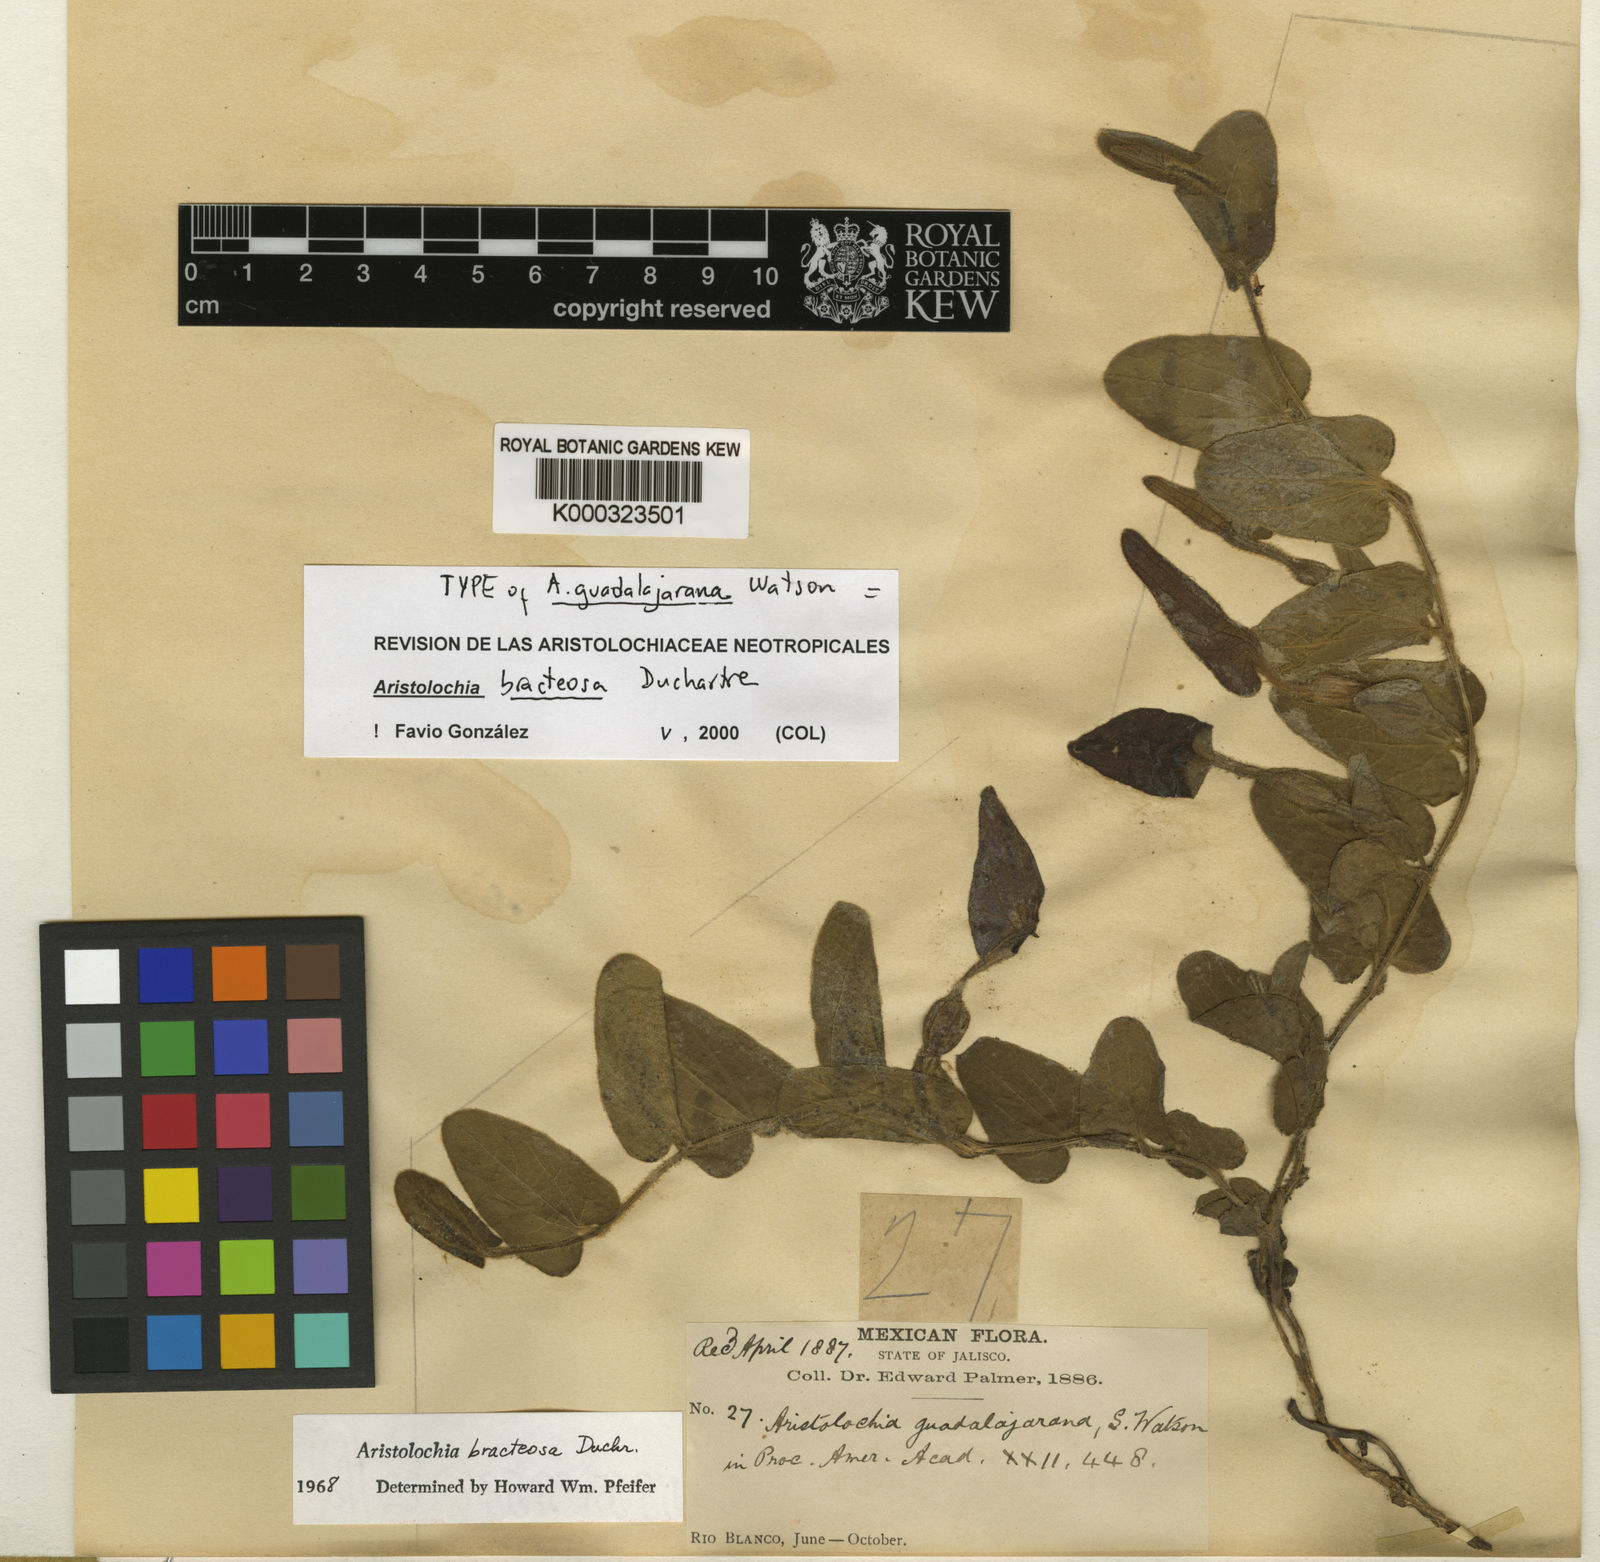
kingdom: Plantae
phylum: Tracheophyta
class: Magnoliopsida
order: Piperales
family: Aristolochiaceae
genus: Aristolochia
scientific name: Aristolochia bracteosa
